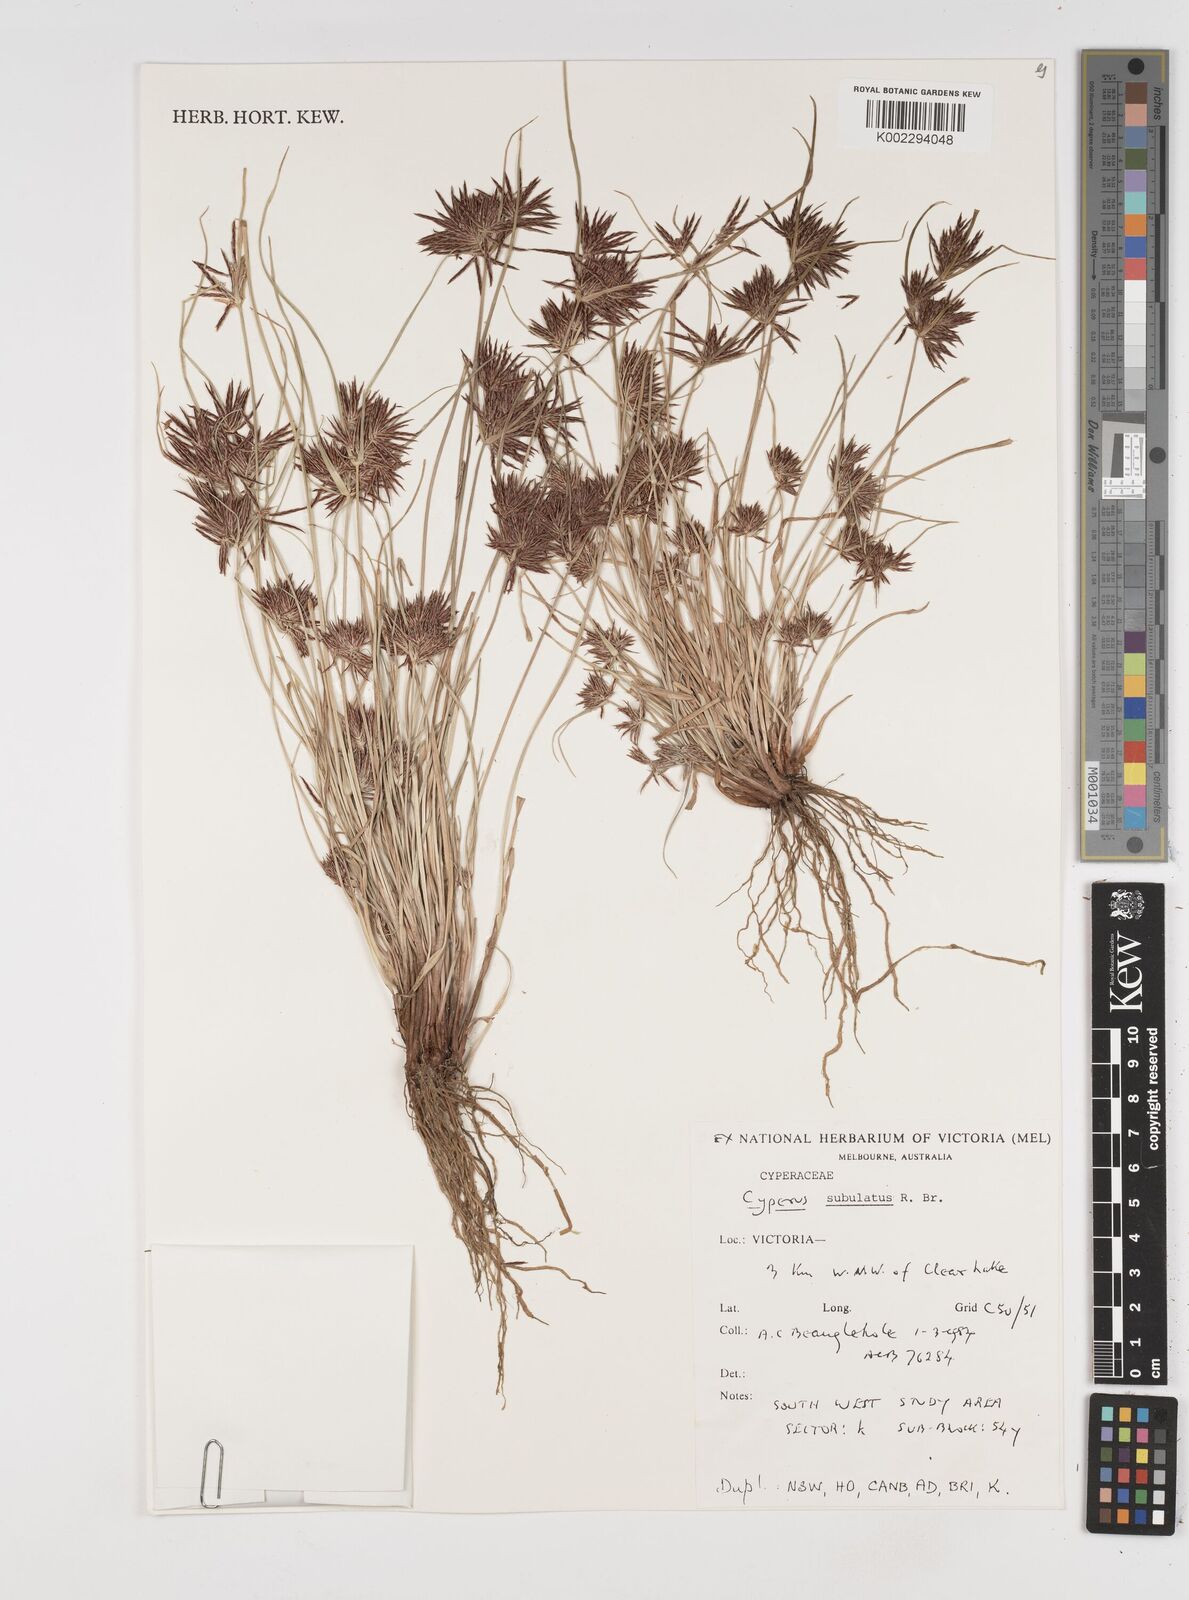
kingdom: Plantae
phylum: Tracheophyta
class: Liliopsida
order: Poales
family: Cyperaceae
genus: Cyperus
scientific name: Cyperus subulatus
